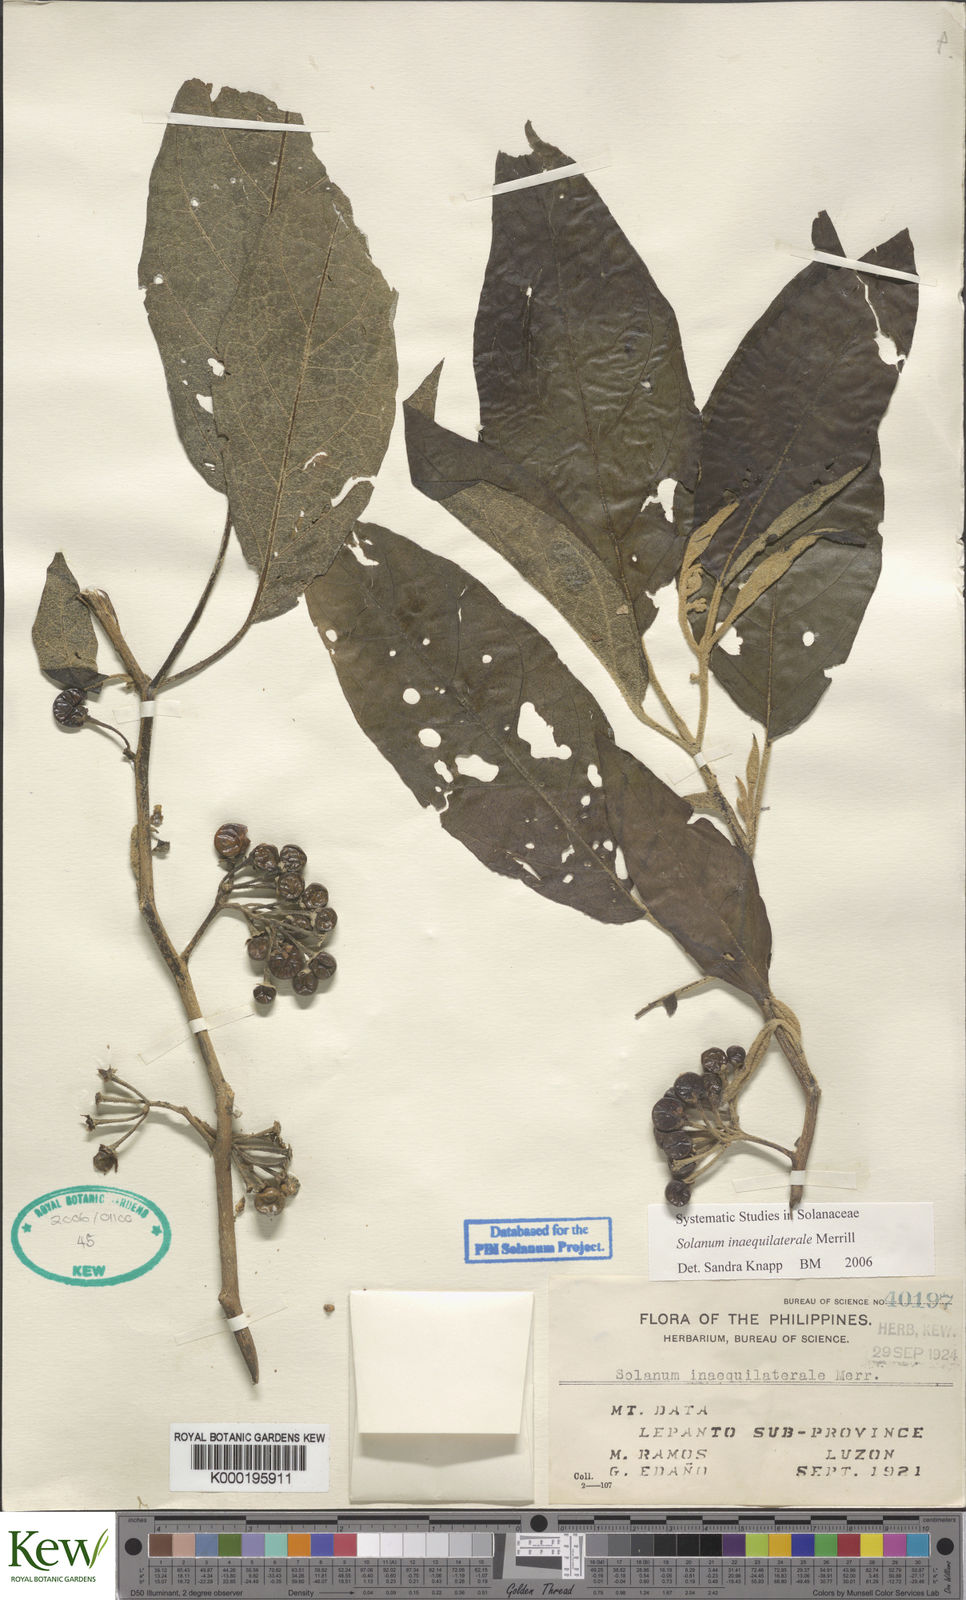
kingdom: Plantae
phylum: Tracheophyta
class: Magnoliopsida
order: Solanales
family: Solanaceae
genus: Solanum
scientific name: Solanum pseudosaponaceum
